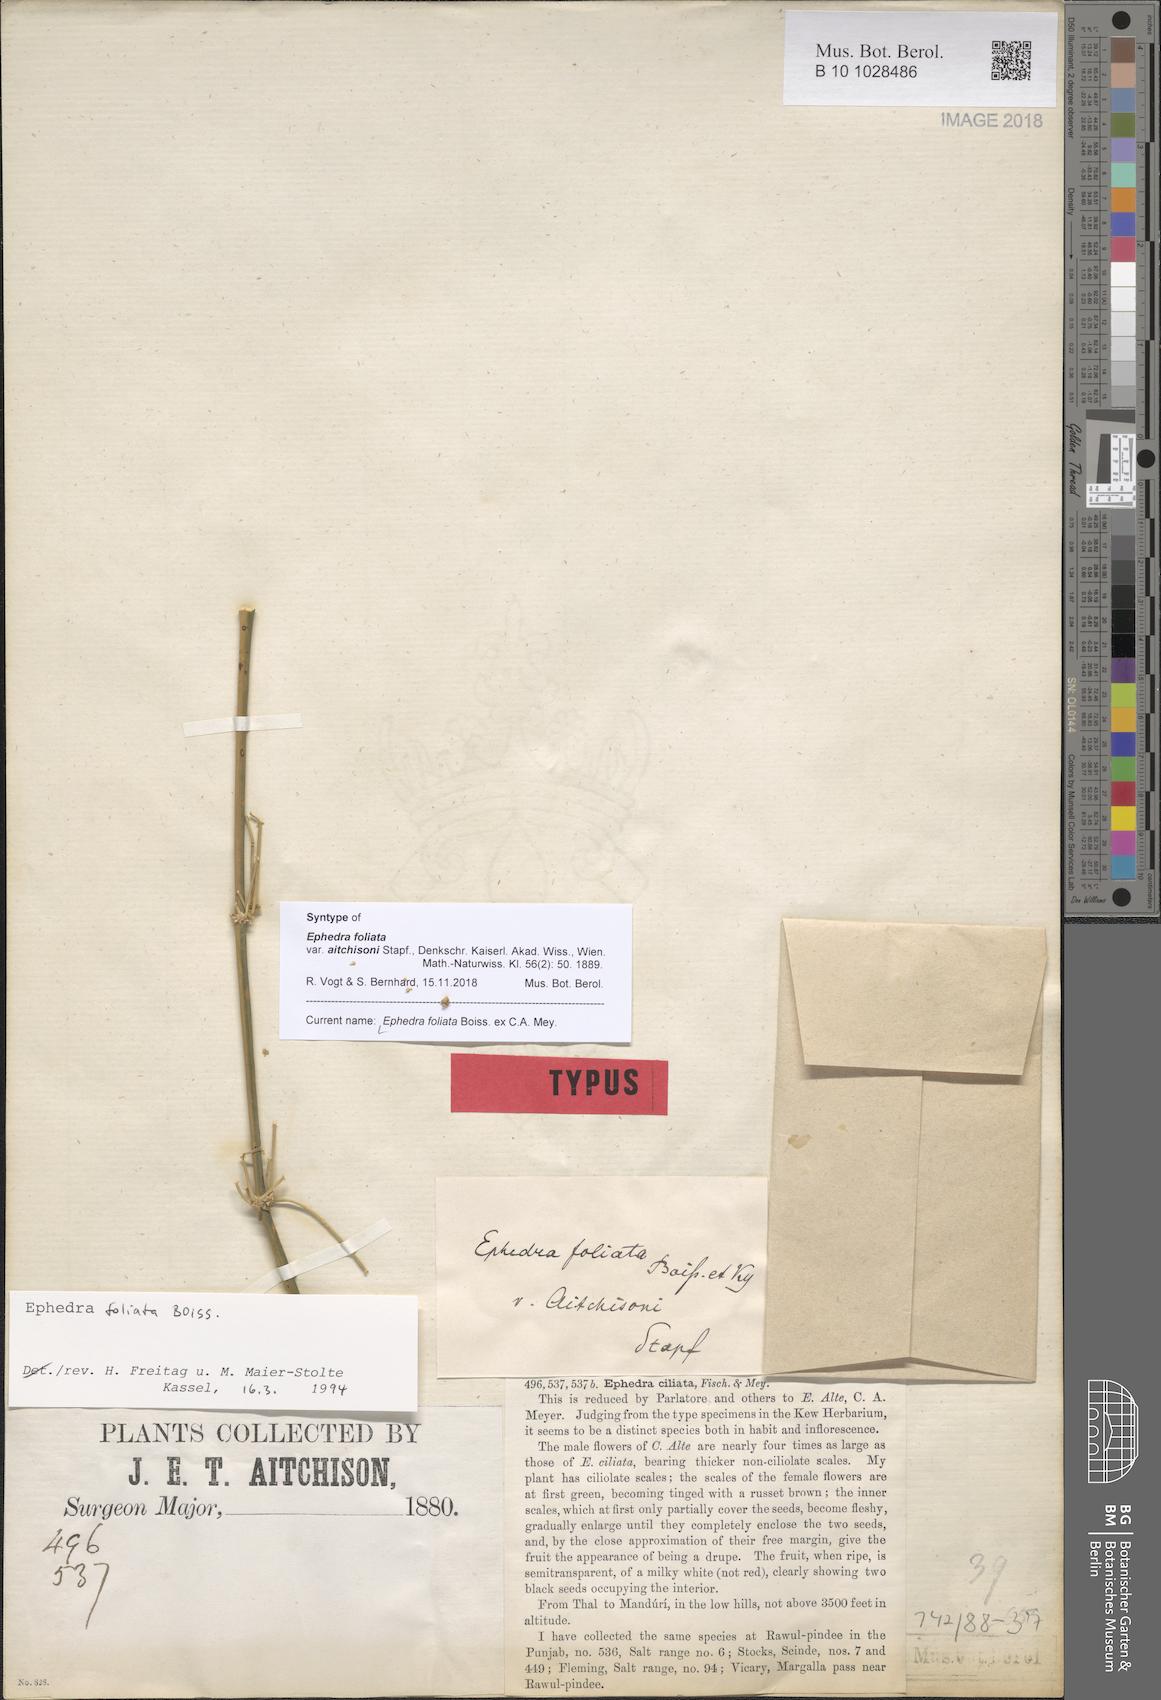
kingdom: Plantae
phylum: Tracheophyta
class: Gnetopsida
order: Ephedrales
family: Ephedraceae
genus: Ephedra
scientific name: Ephedra ciliata
